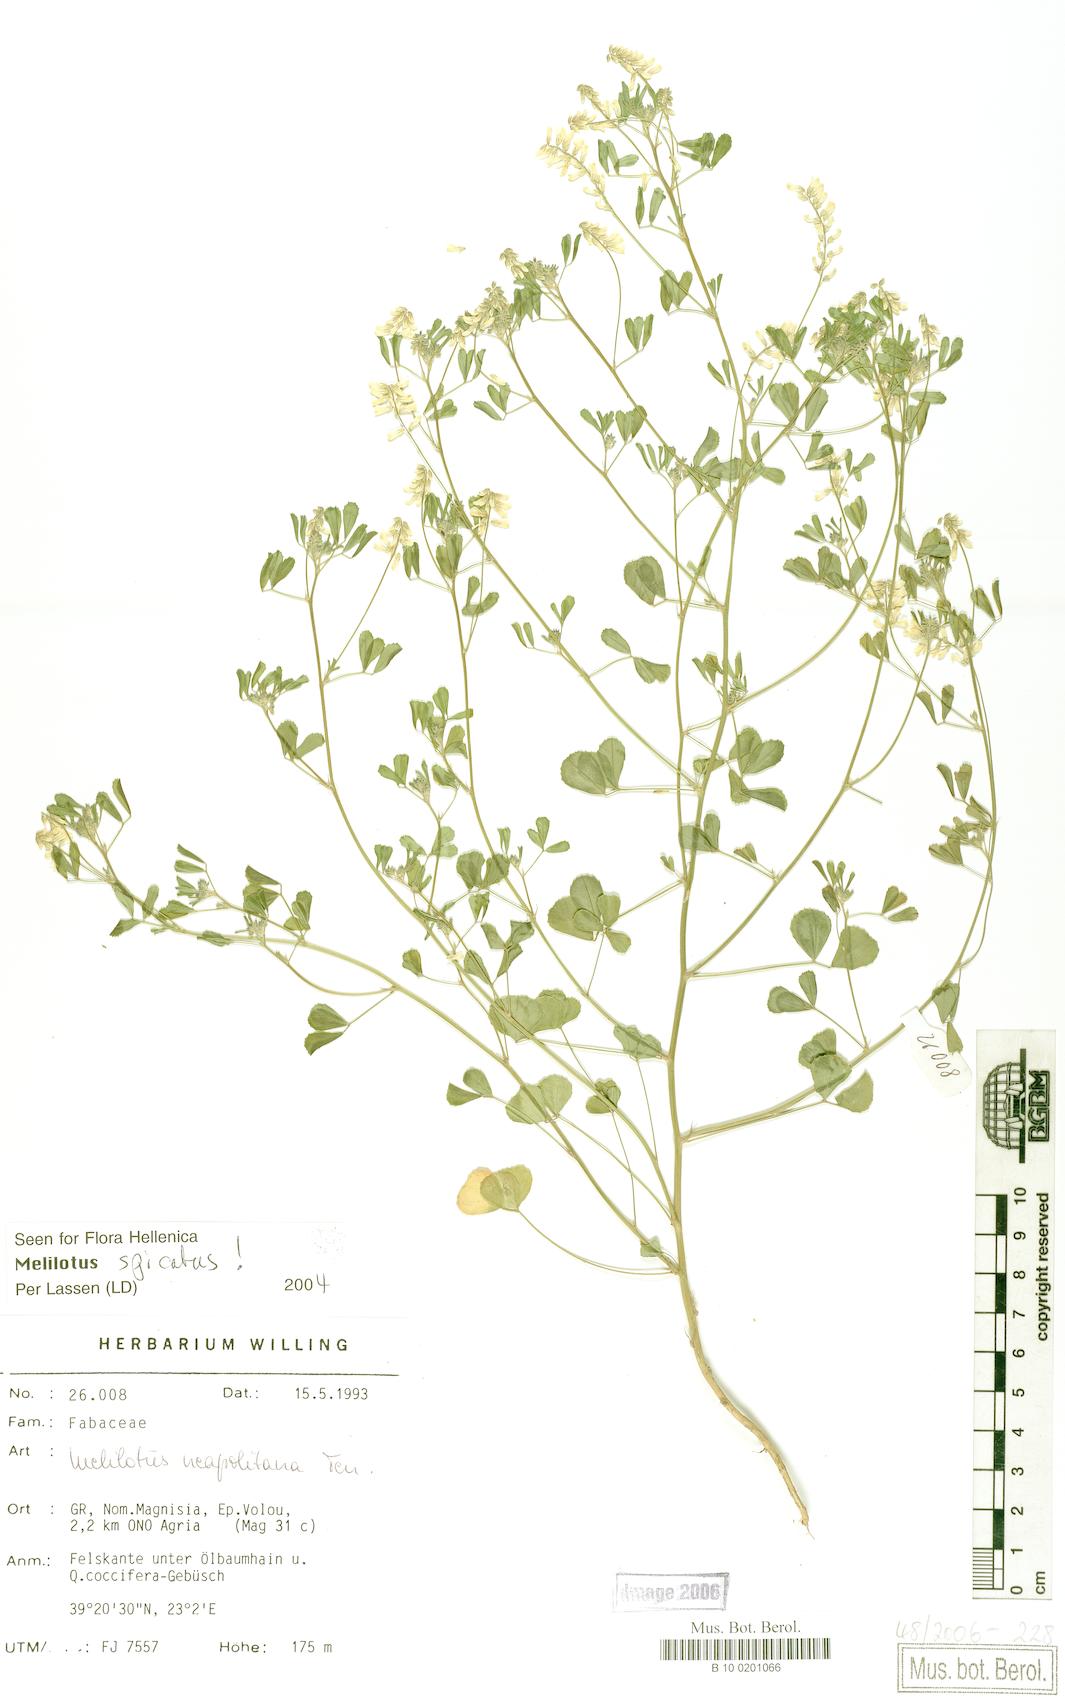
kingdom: Plantae
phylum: Tracheophyta
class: Magnoliopsida
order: Fabales
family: Fabaceae
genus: Melilotus
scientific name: Melilotus neapolitanus
